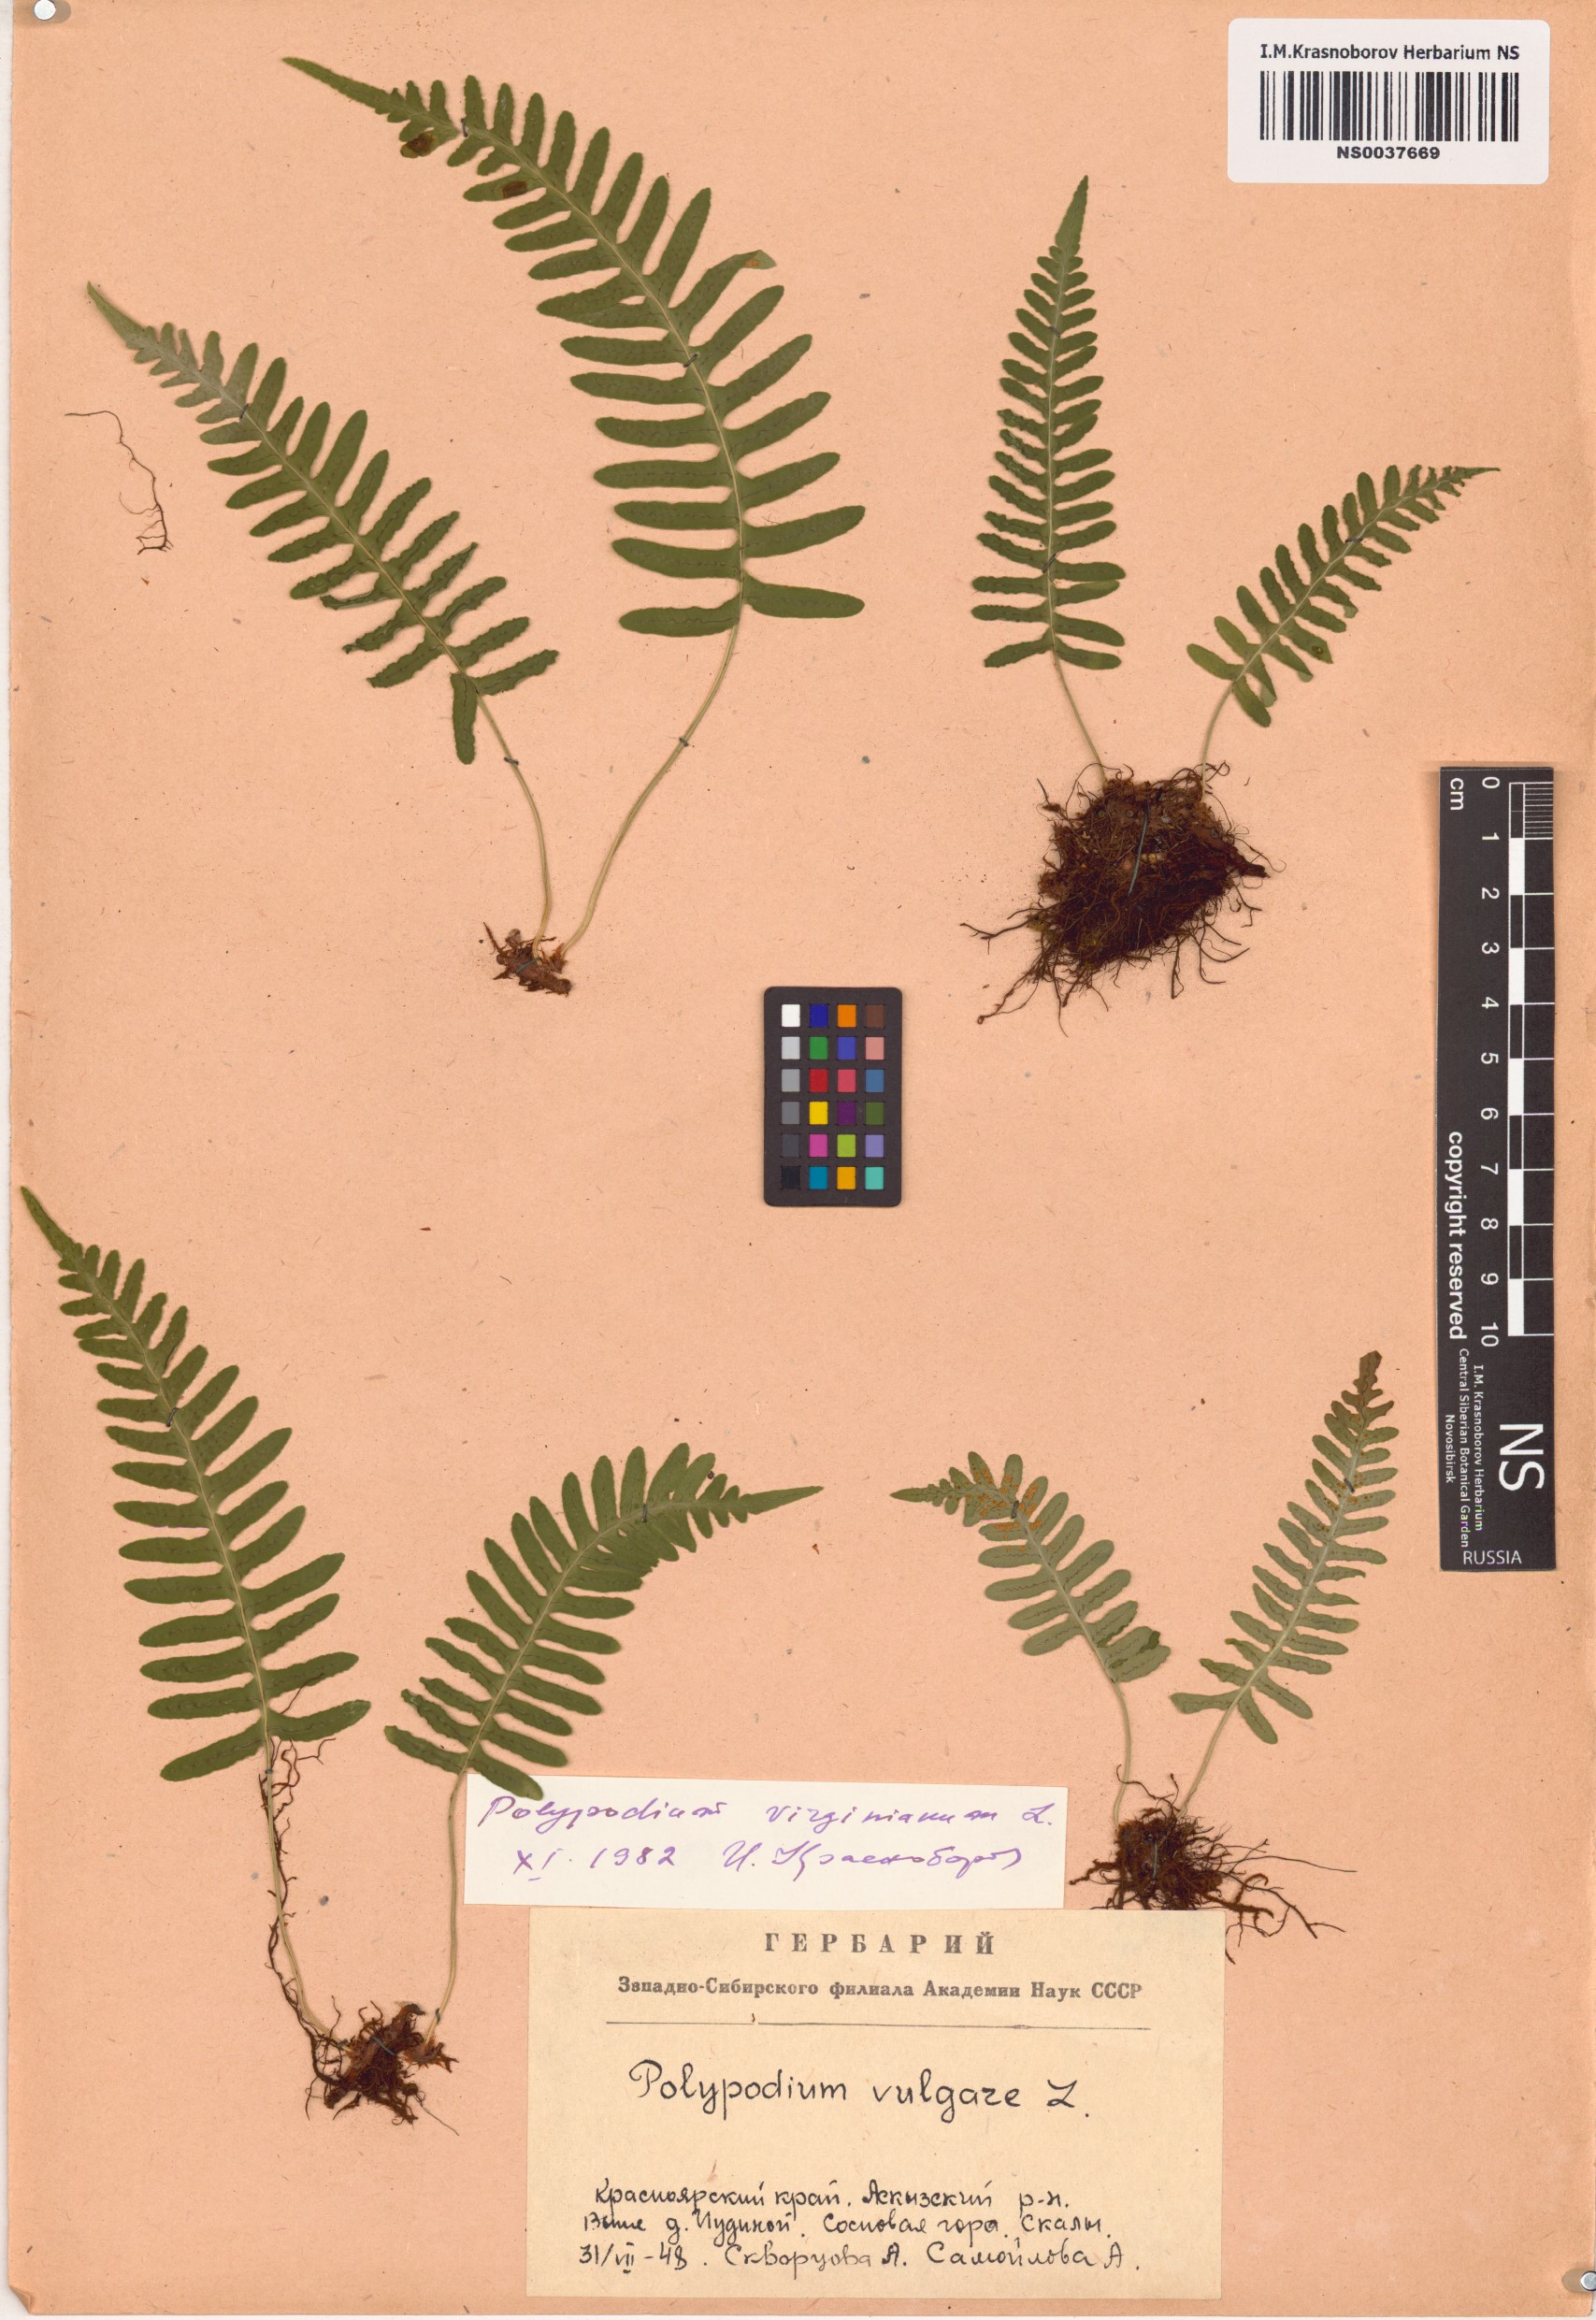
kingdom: Plantae
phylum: Tracheophyta
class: Polypodiopsida
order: Polypodiales
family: Polypodiaceae
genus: Polypodium
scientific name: Polypodium virginianum
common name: American wall fern
